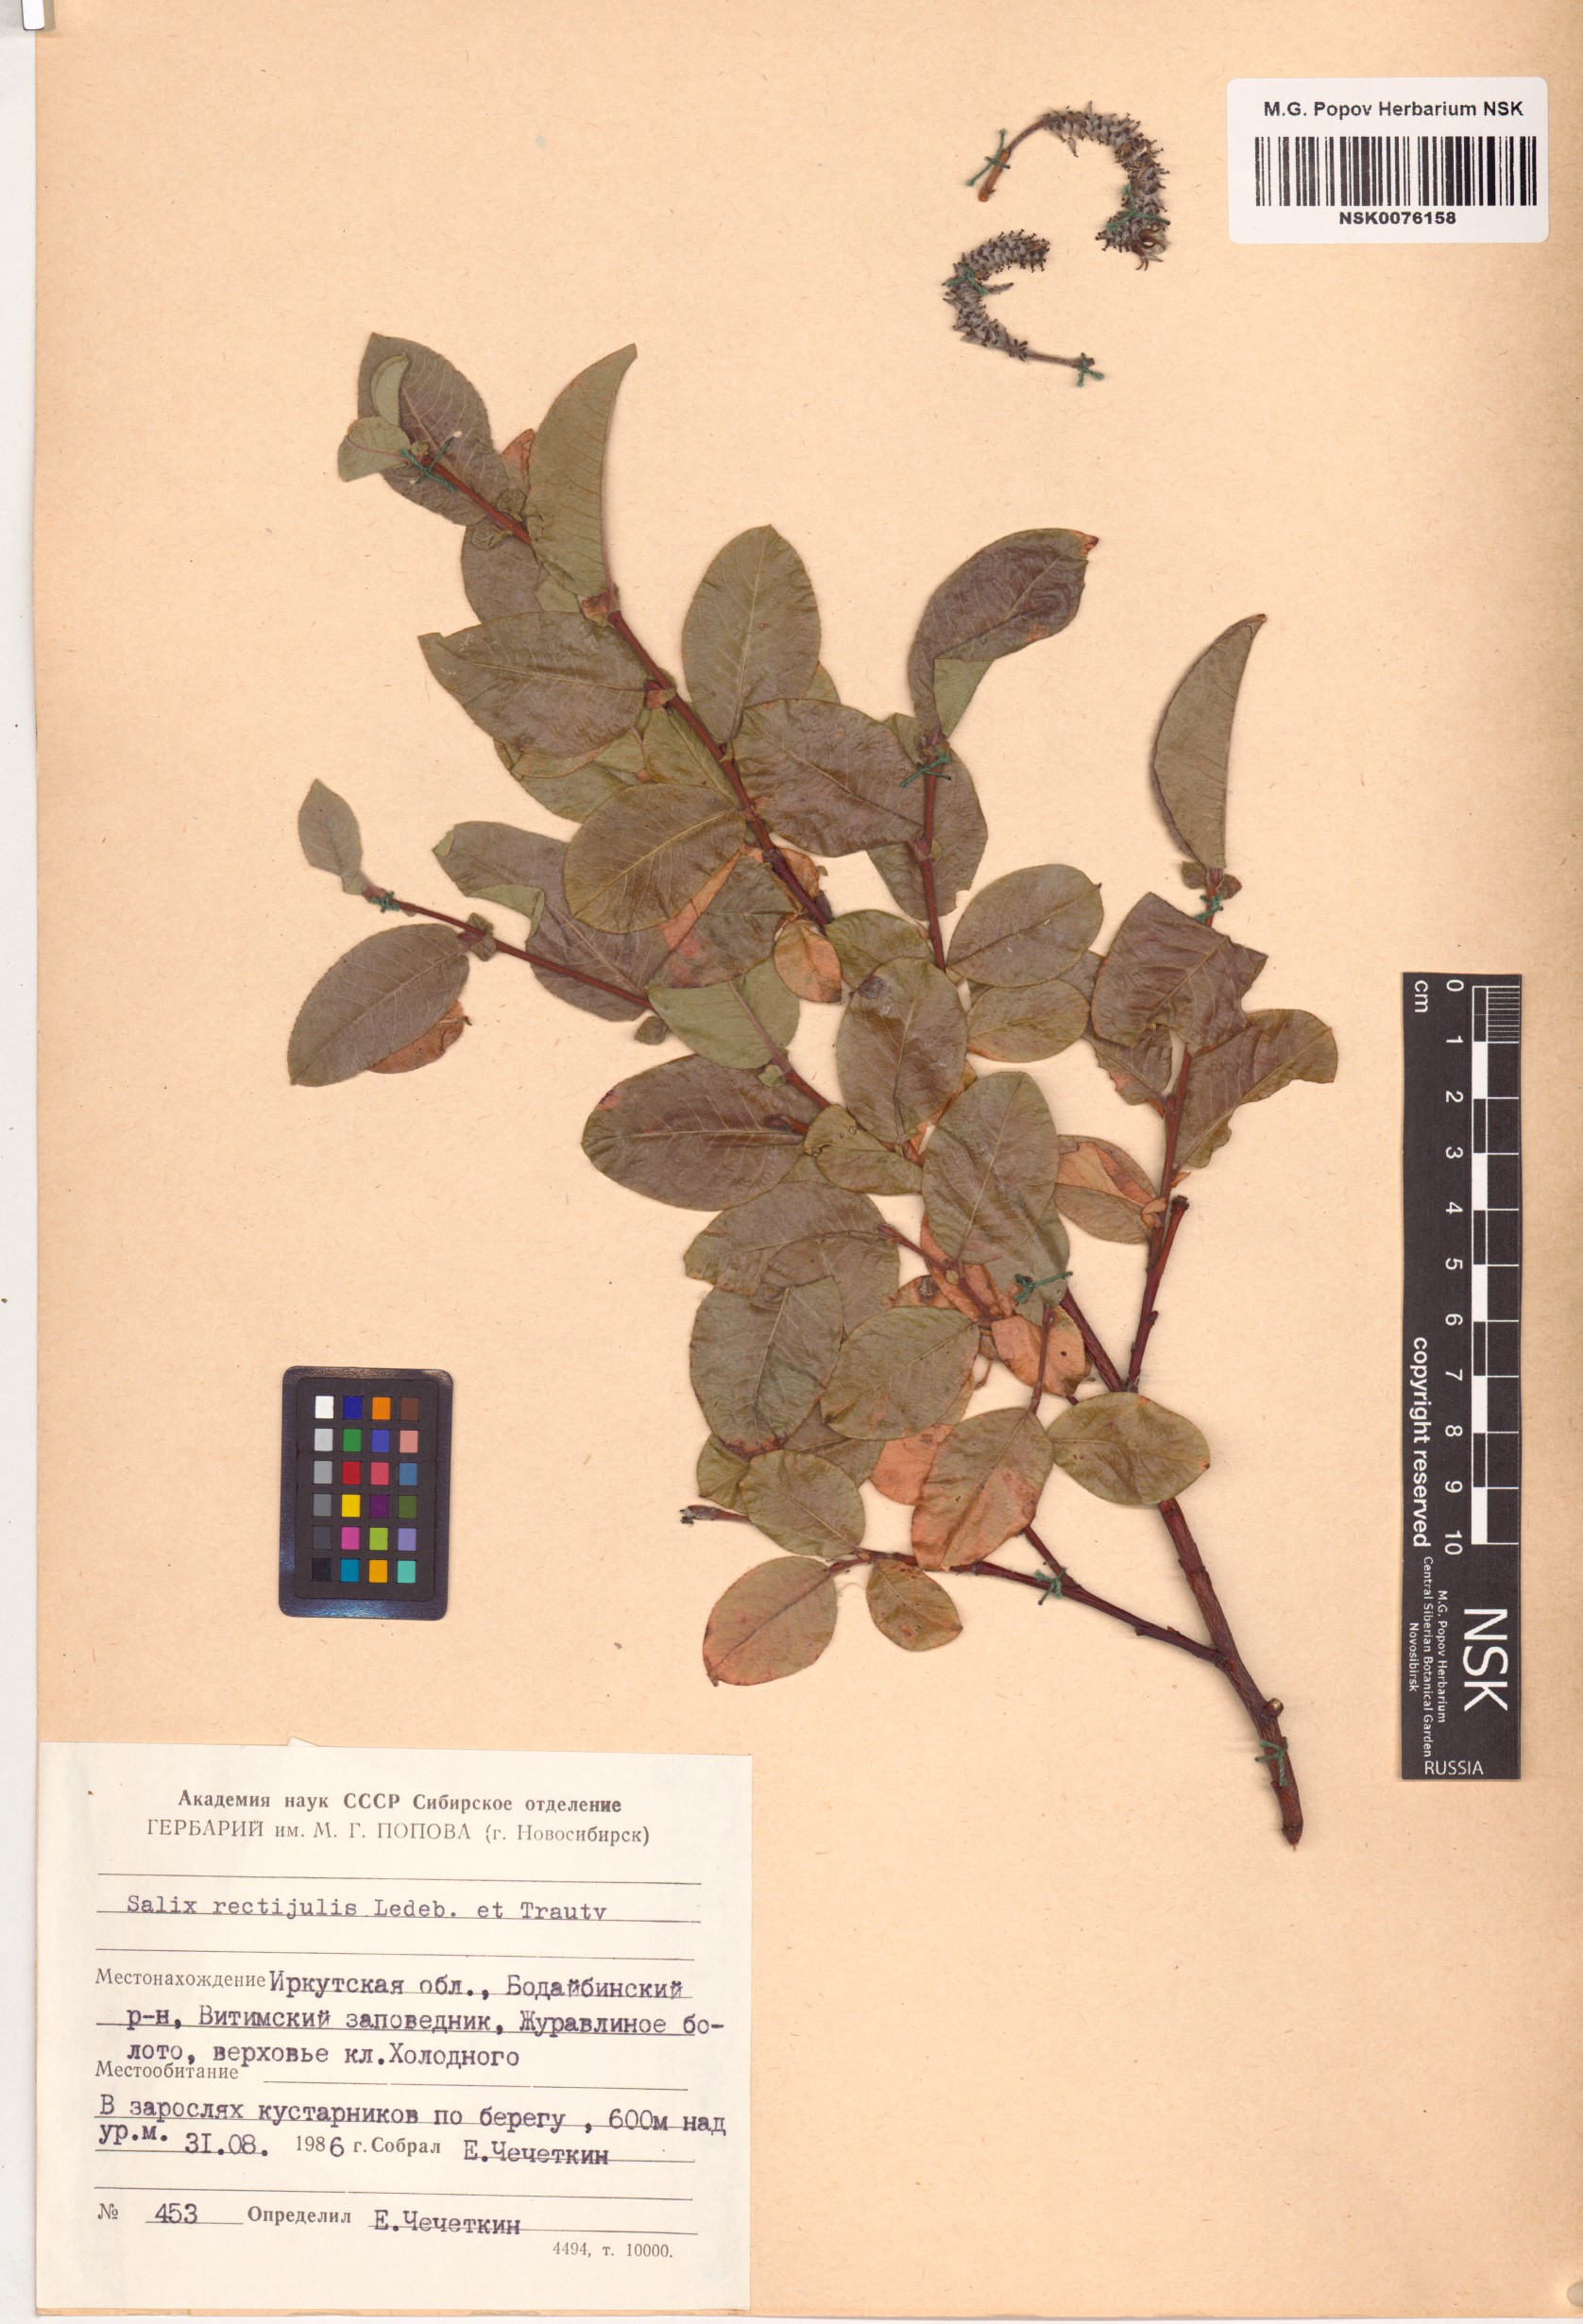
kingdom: Plantae
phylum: Tracheophyta
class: Magnoliopsida
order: Malpighiales
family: Salicaceae
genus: Salix
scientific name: Salix rectijulis
